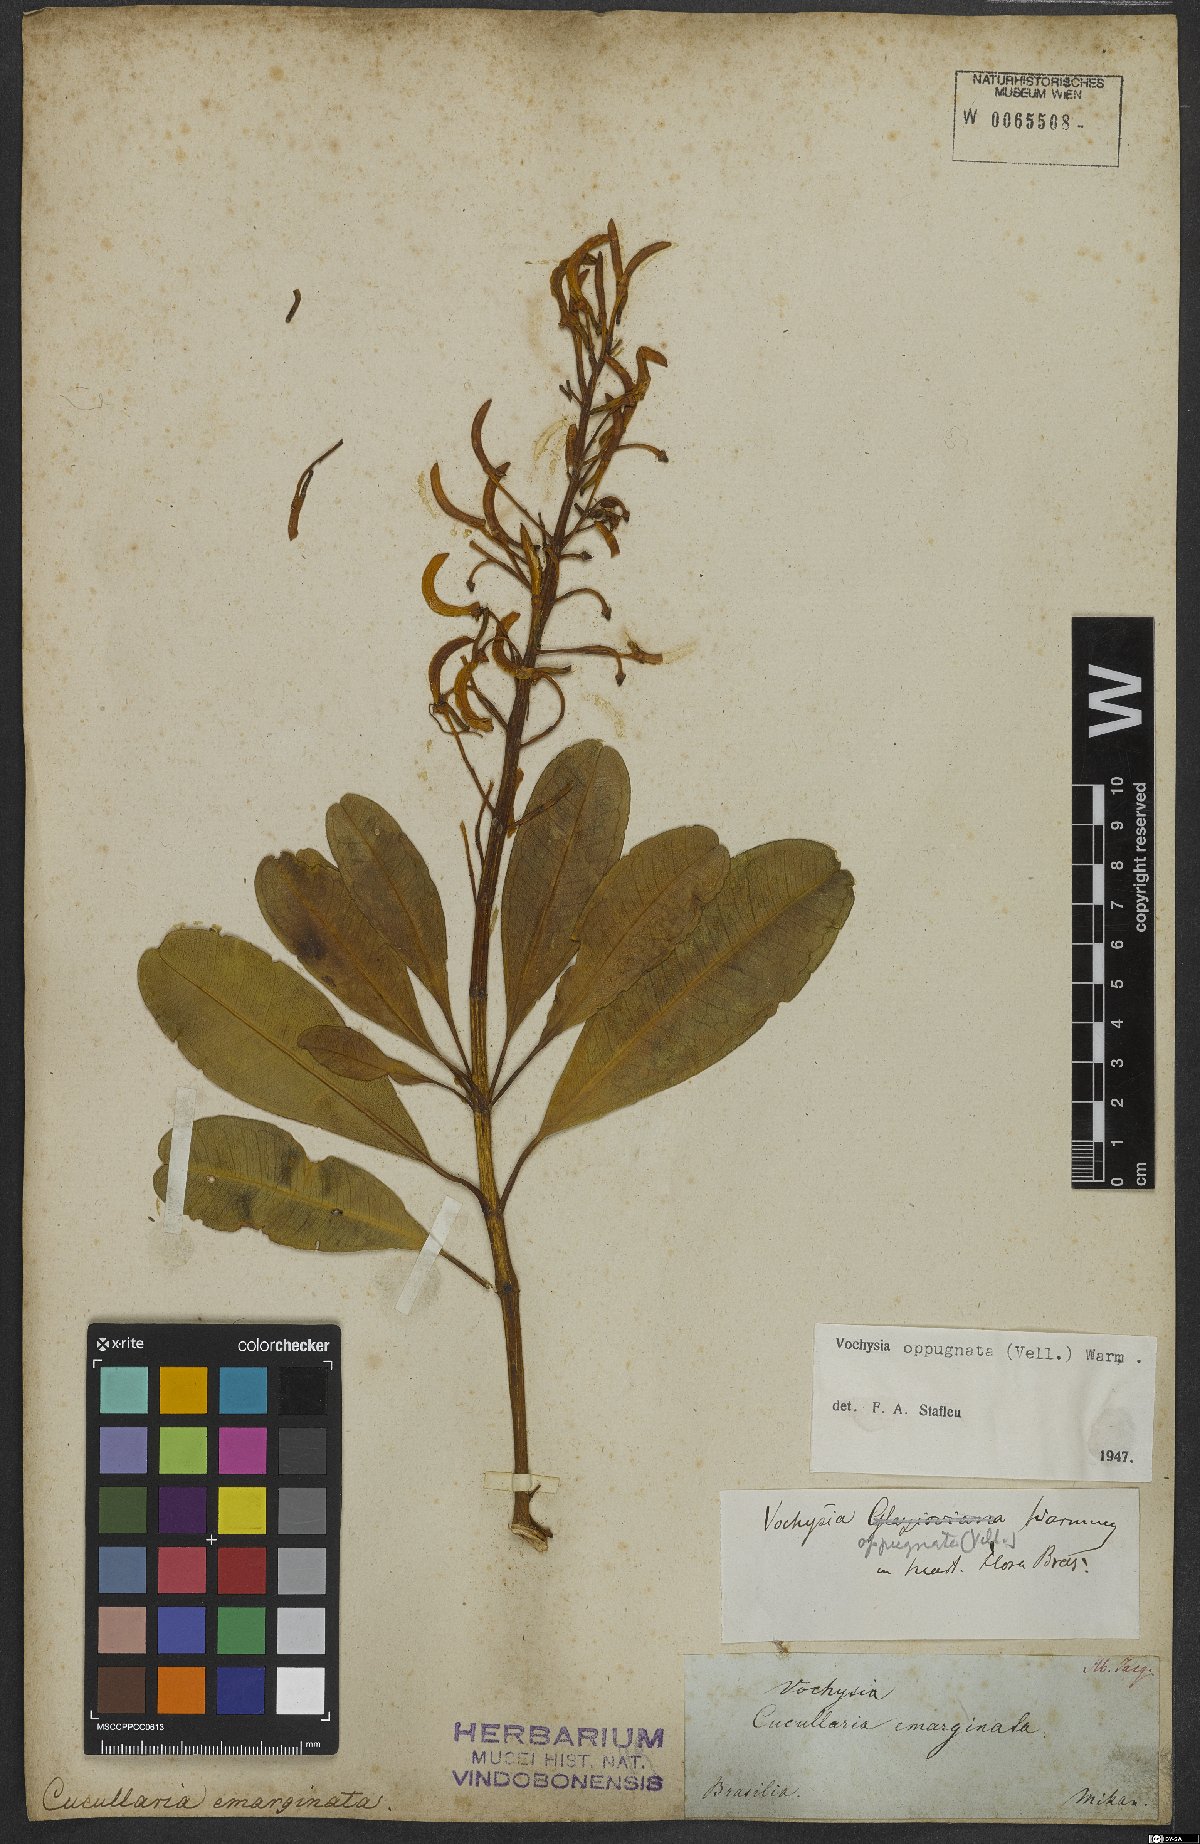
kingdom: Plantae
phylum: Tracheophyta
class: Magnoliopsida
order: Myrtales
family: Vochysiaceae
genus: Vochysia
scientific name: Vochysia oppugnata
